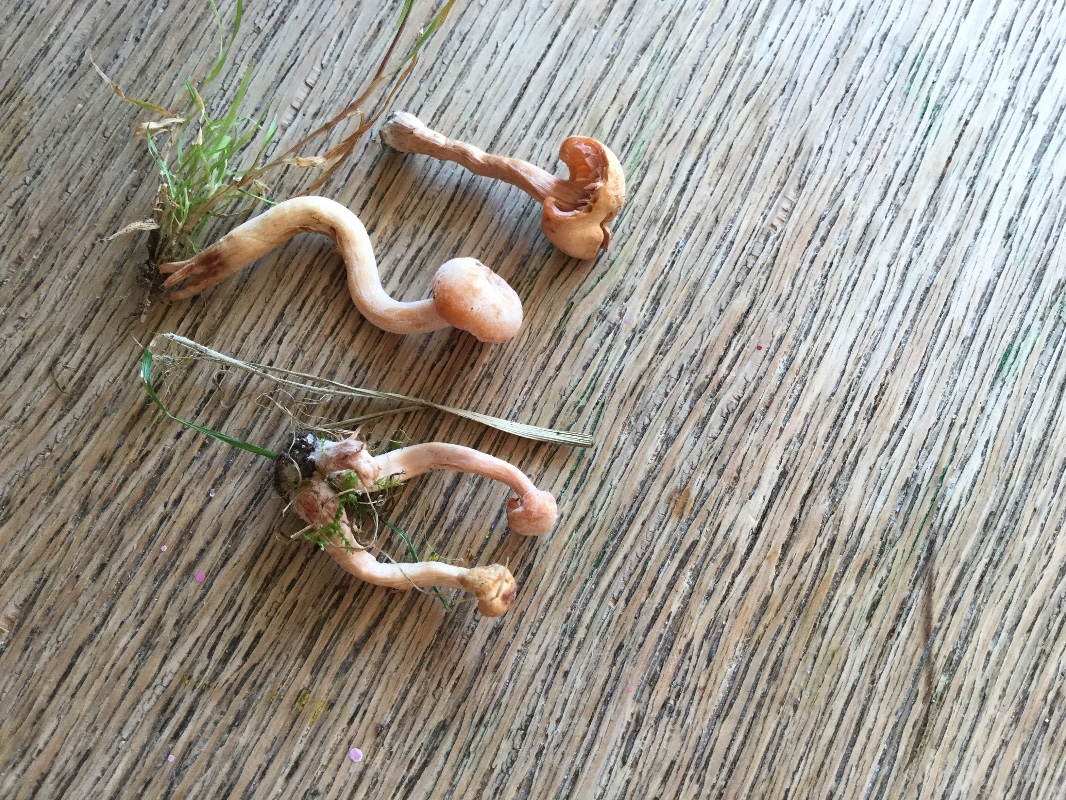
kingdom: Fungi
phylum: Basidiomycota
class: Agaricomycetes
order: Agaricales
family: Hydnangiaceae
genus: Laccaria
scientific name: Laccaria laccata
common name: rød ametysthat
